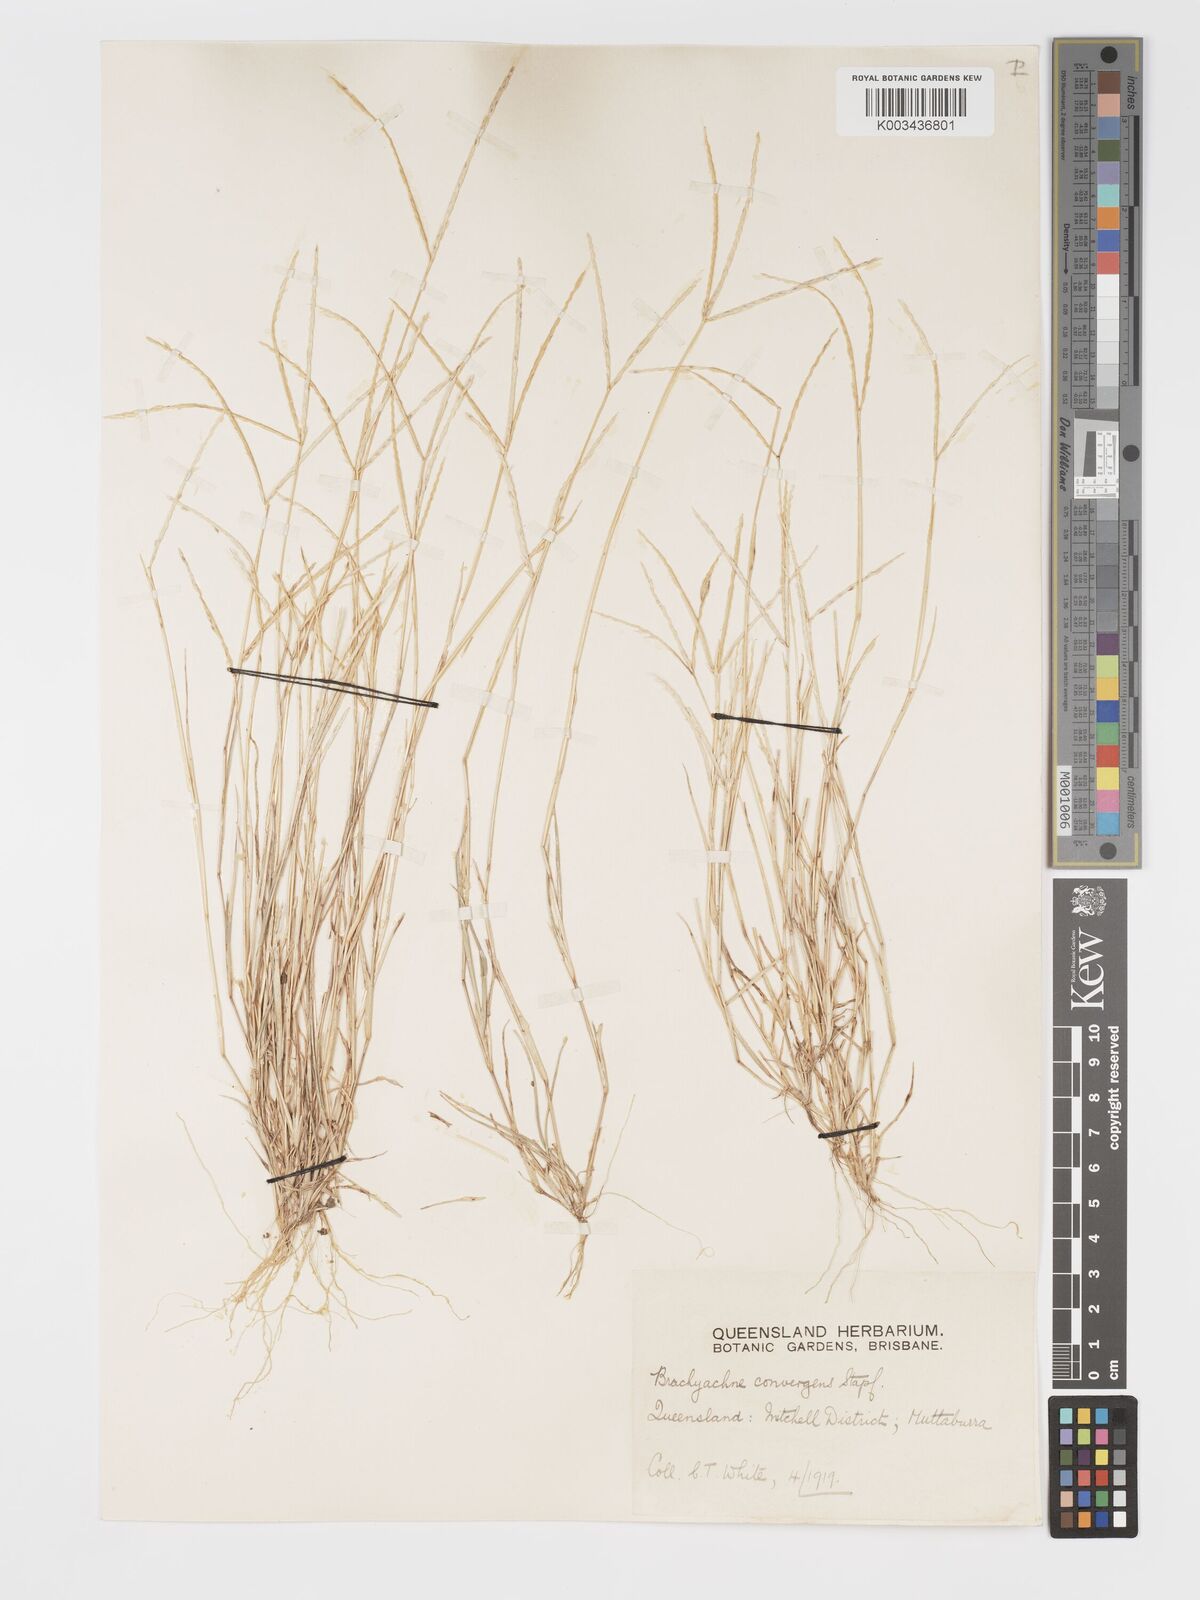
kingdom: Plantae
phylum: Tracheophyta
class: Liliopsida
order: Poales
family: Poaceae
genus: Cynodon
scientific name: Cynodon convergens
